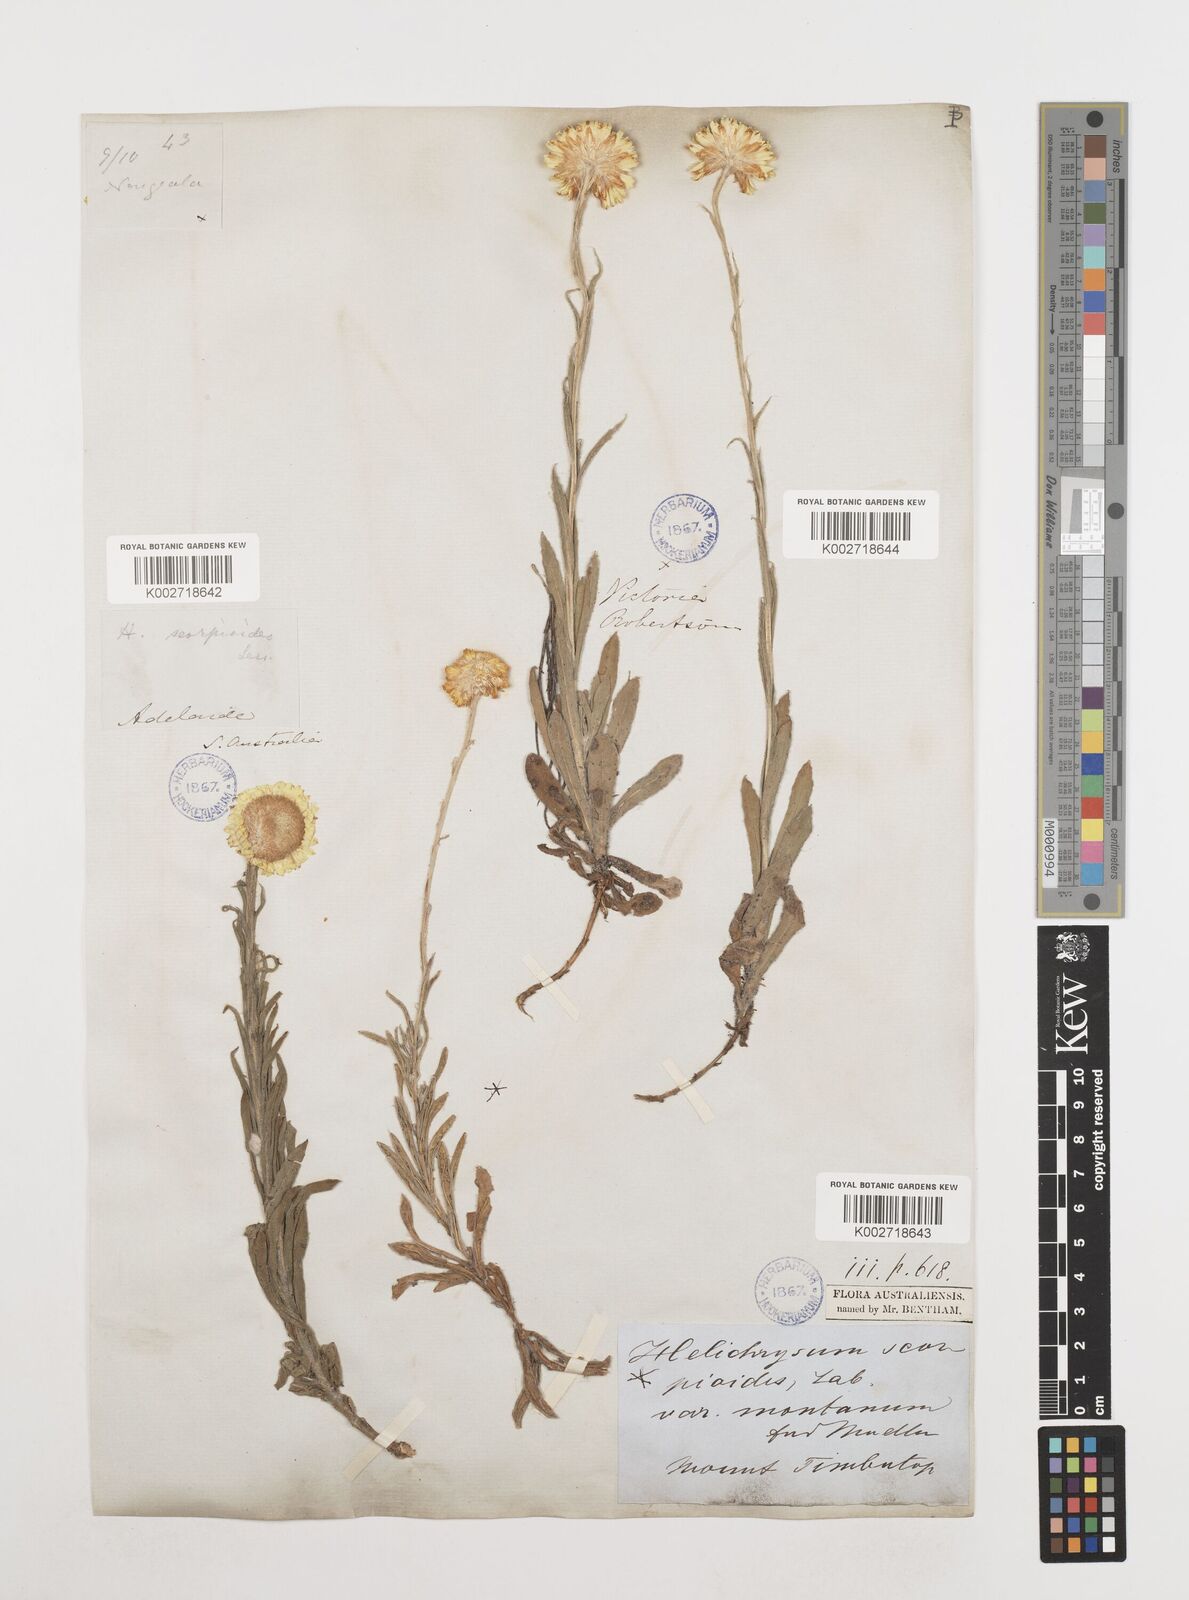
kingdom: Plantae
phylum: Tracheophyta
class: Magnoliopsida
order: Asterales
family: Asteraceae
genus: Coronidium
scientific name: Coronidium scorpioides
